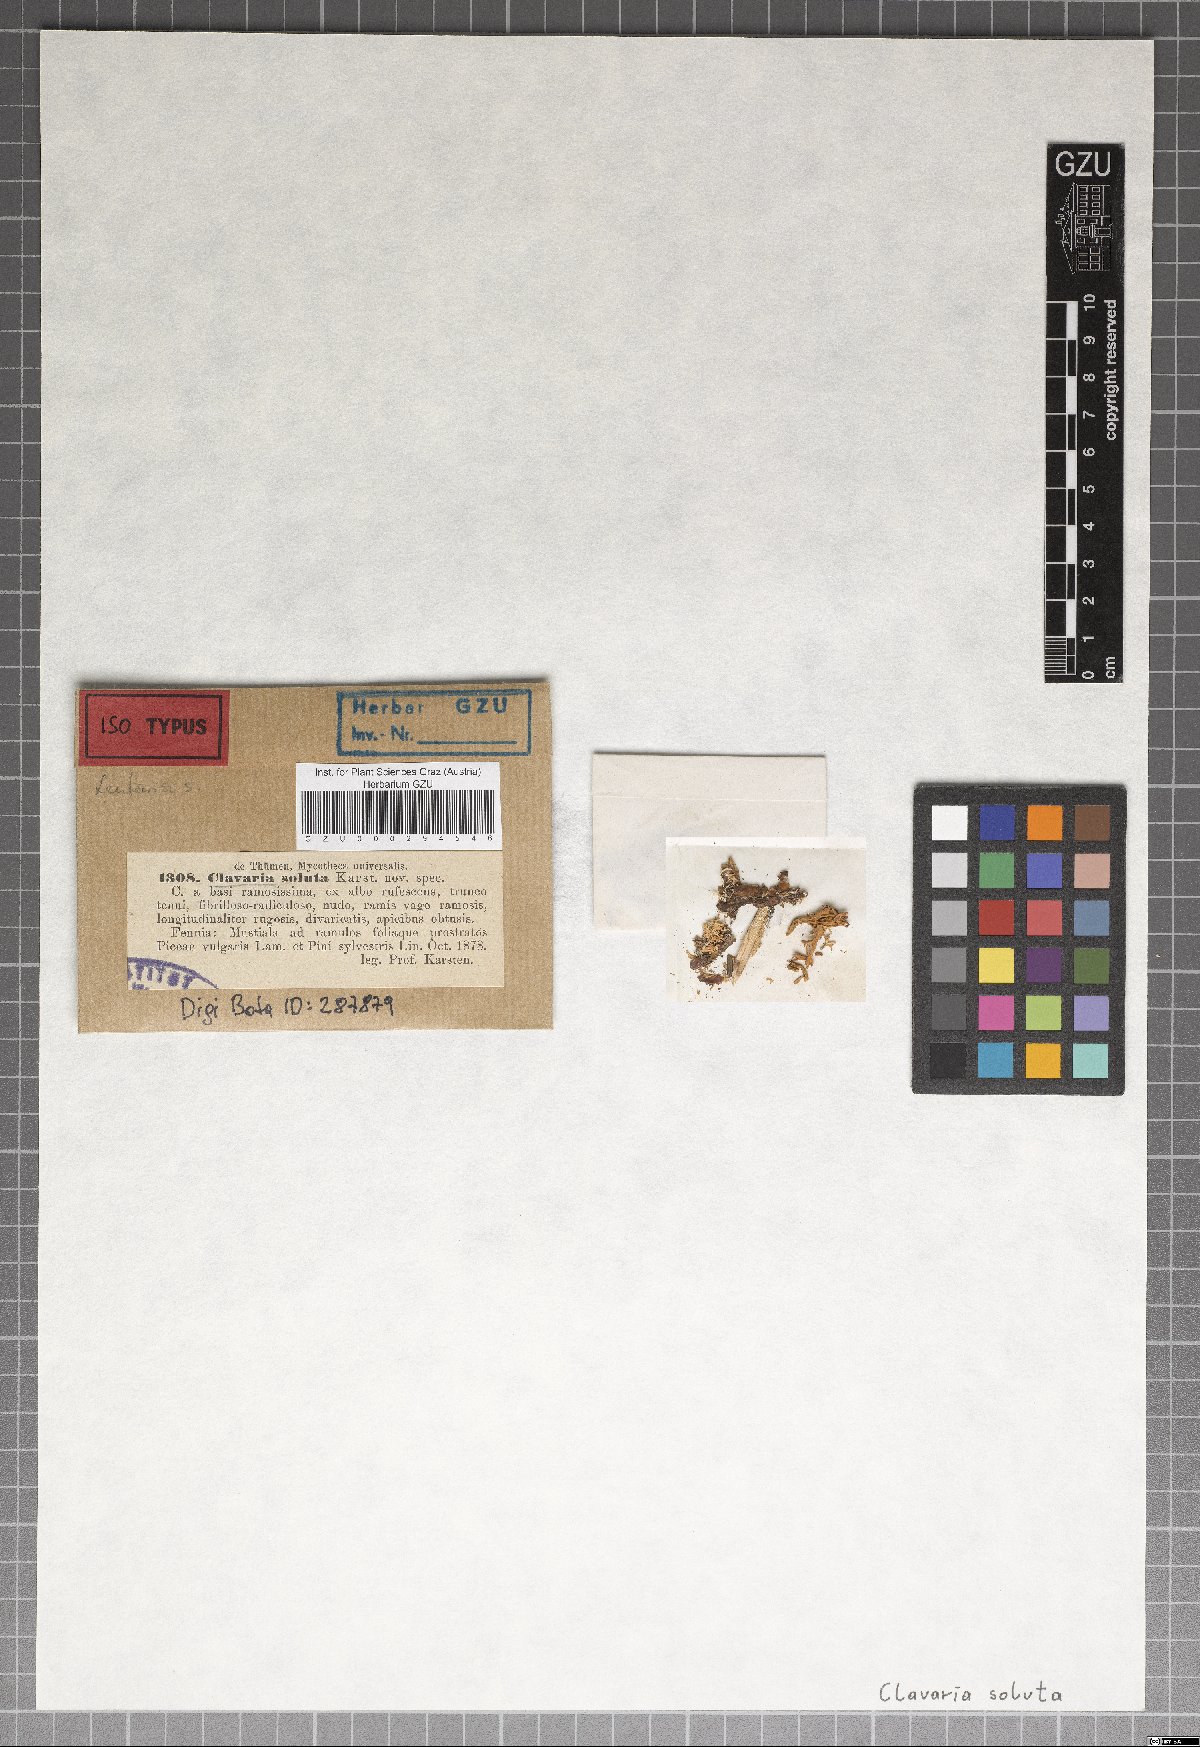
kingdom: Fungi
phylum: Basidiomycota
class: Agaricomycetes
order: Gomphales
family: Gomphaceae
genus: Ramaria
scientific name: Ramaria soluta
